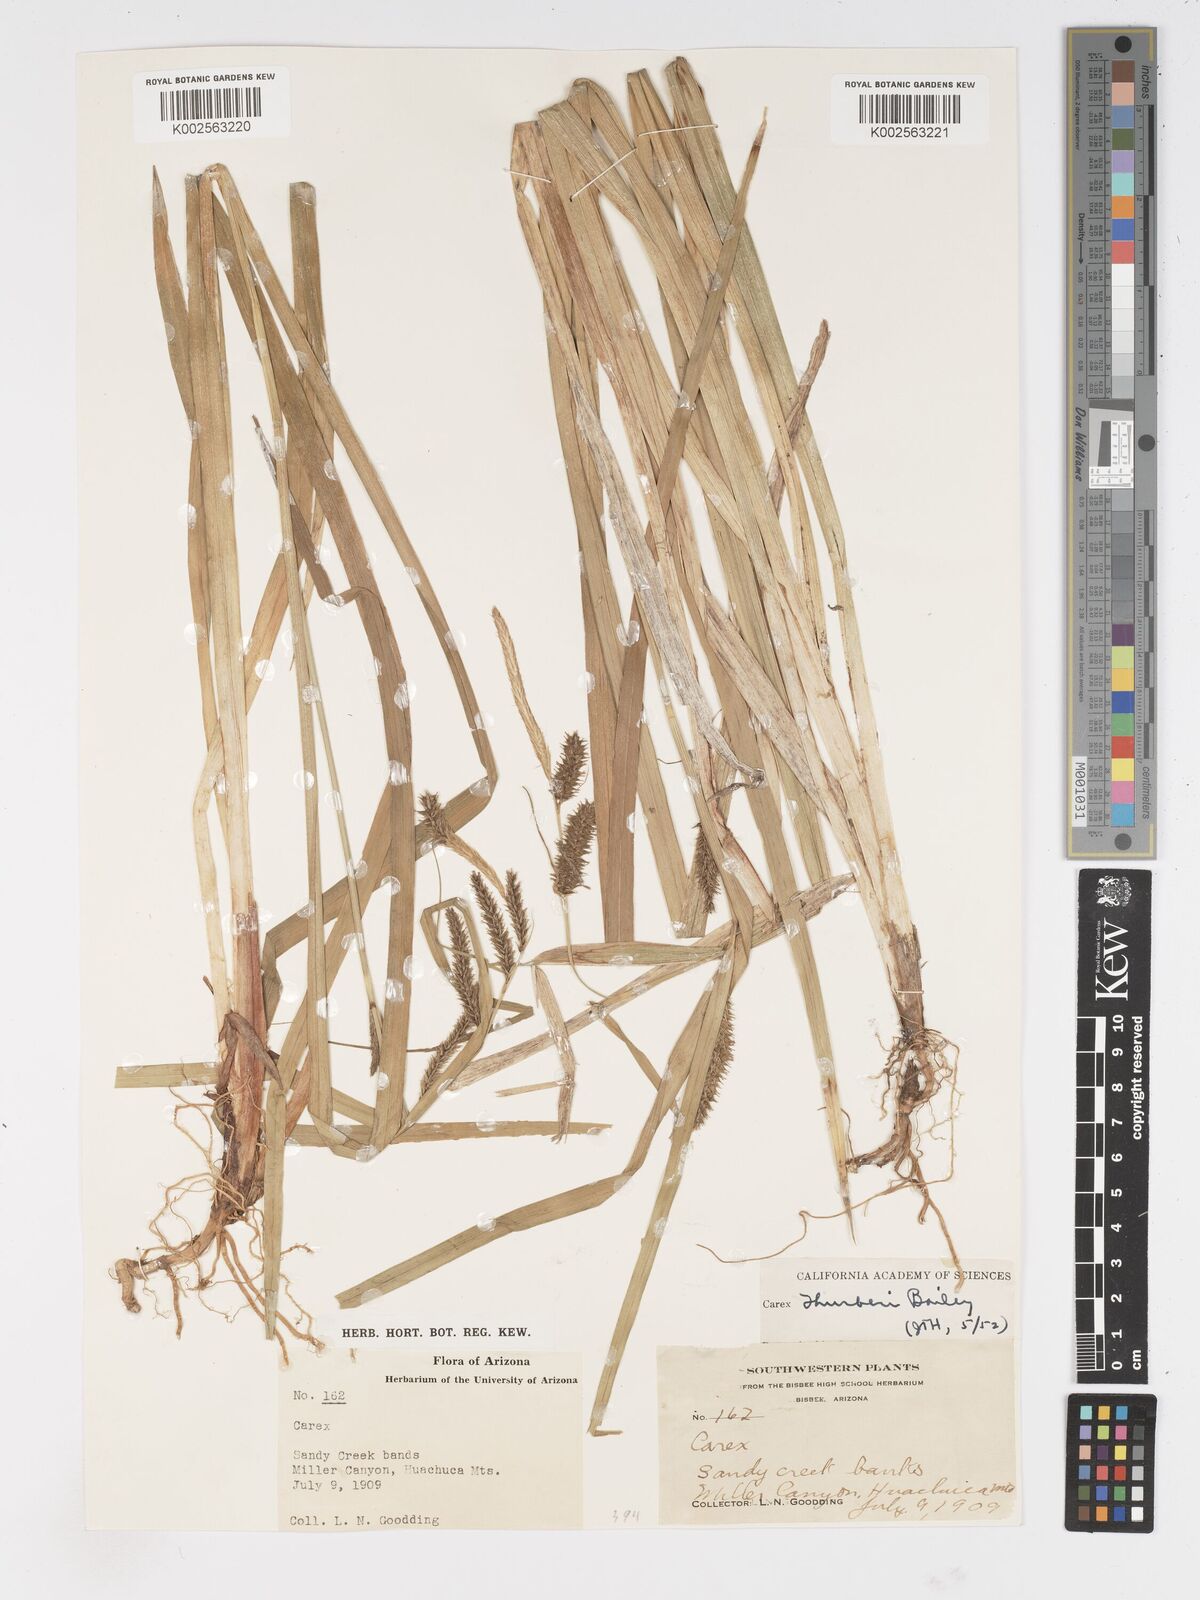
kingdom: Plantae
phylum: Tracheophyta
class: Liliopsida
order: Poales
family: Cyperaceae
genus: Carex
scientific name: Carex
